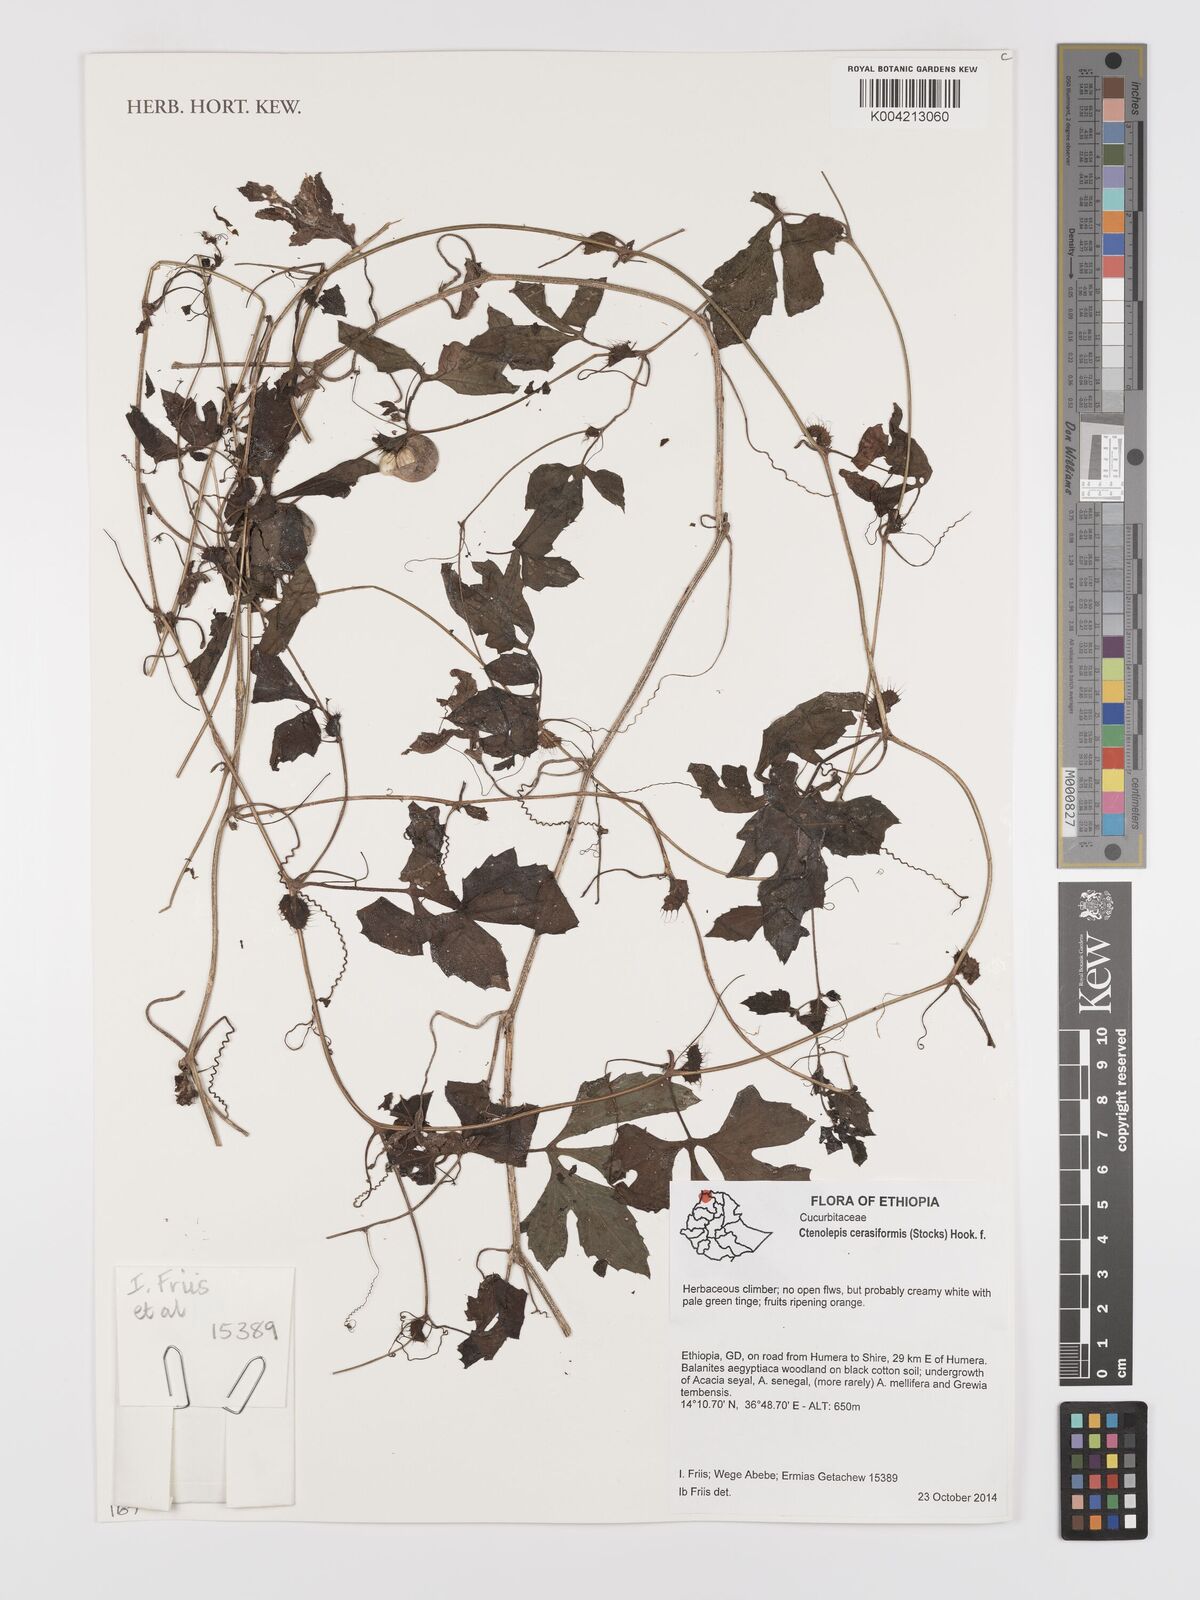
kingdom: Plantae
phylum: Tracheophyta
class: Magnoliopsida
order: Cucurbitales
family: Cucurbitaceae
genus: Blastania
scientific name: Blastania cerasiformis
